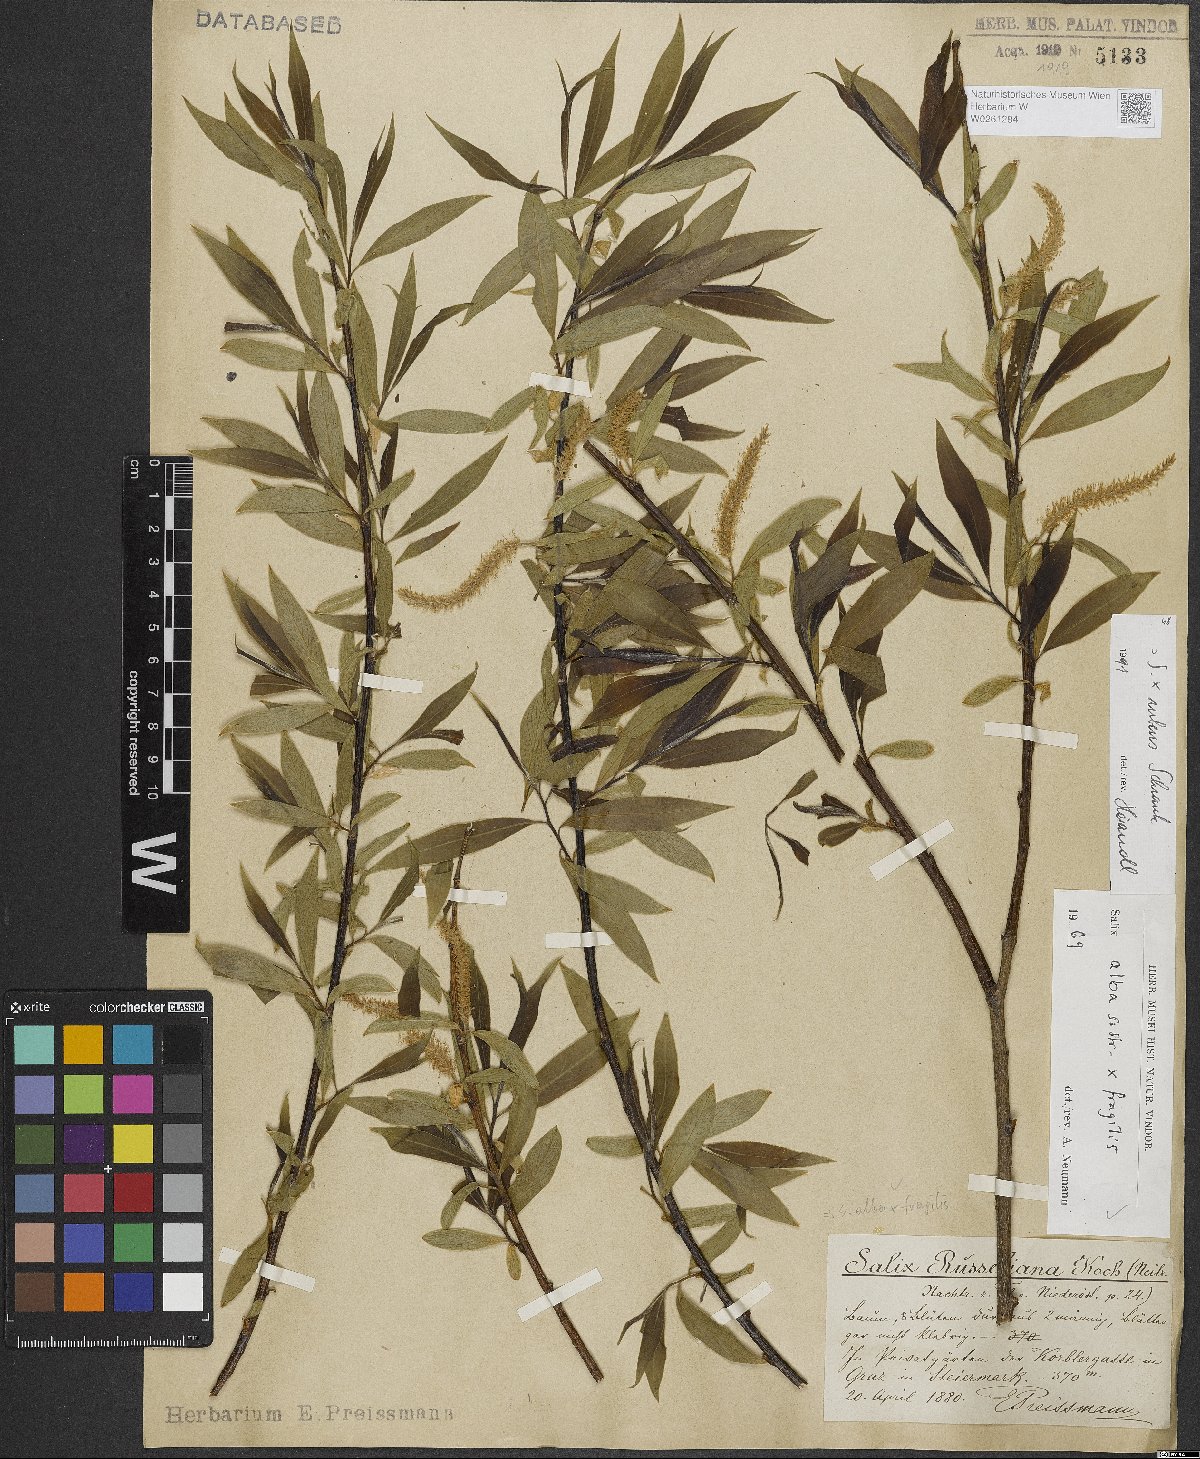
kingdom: Plantae
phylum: Tracheophyta
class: Magnoliopsida
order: Malpighiales
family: Salicaceae
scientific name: Salicaceae
